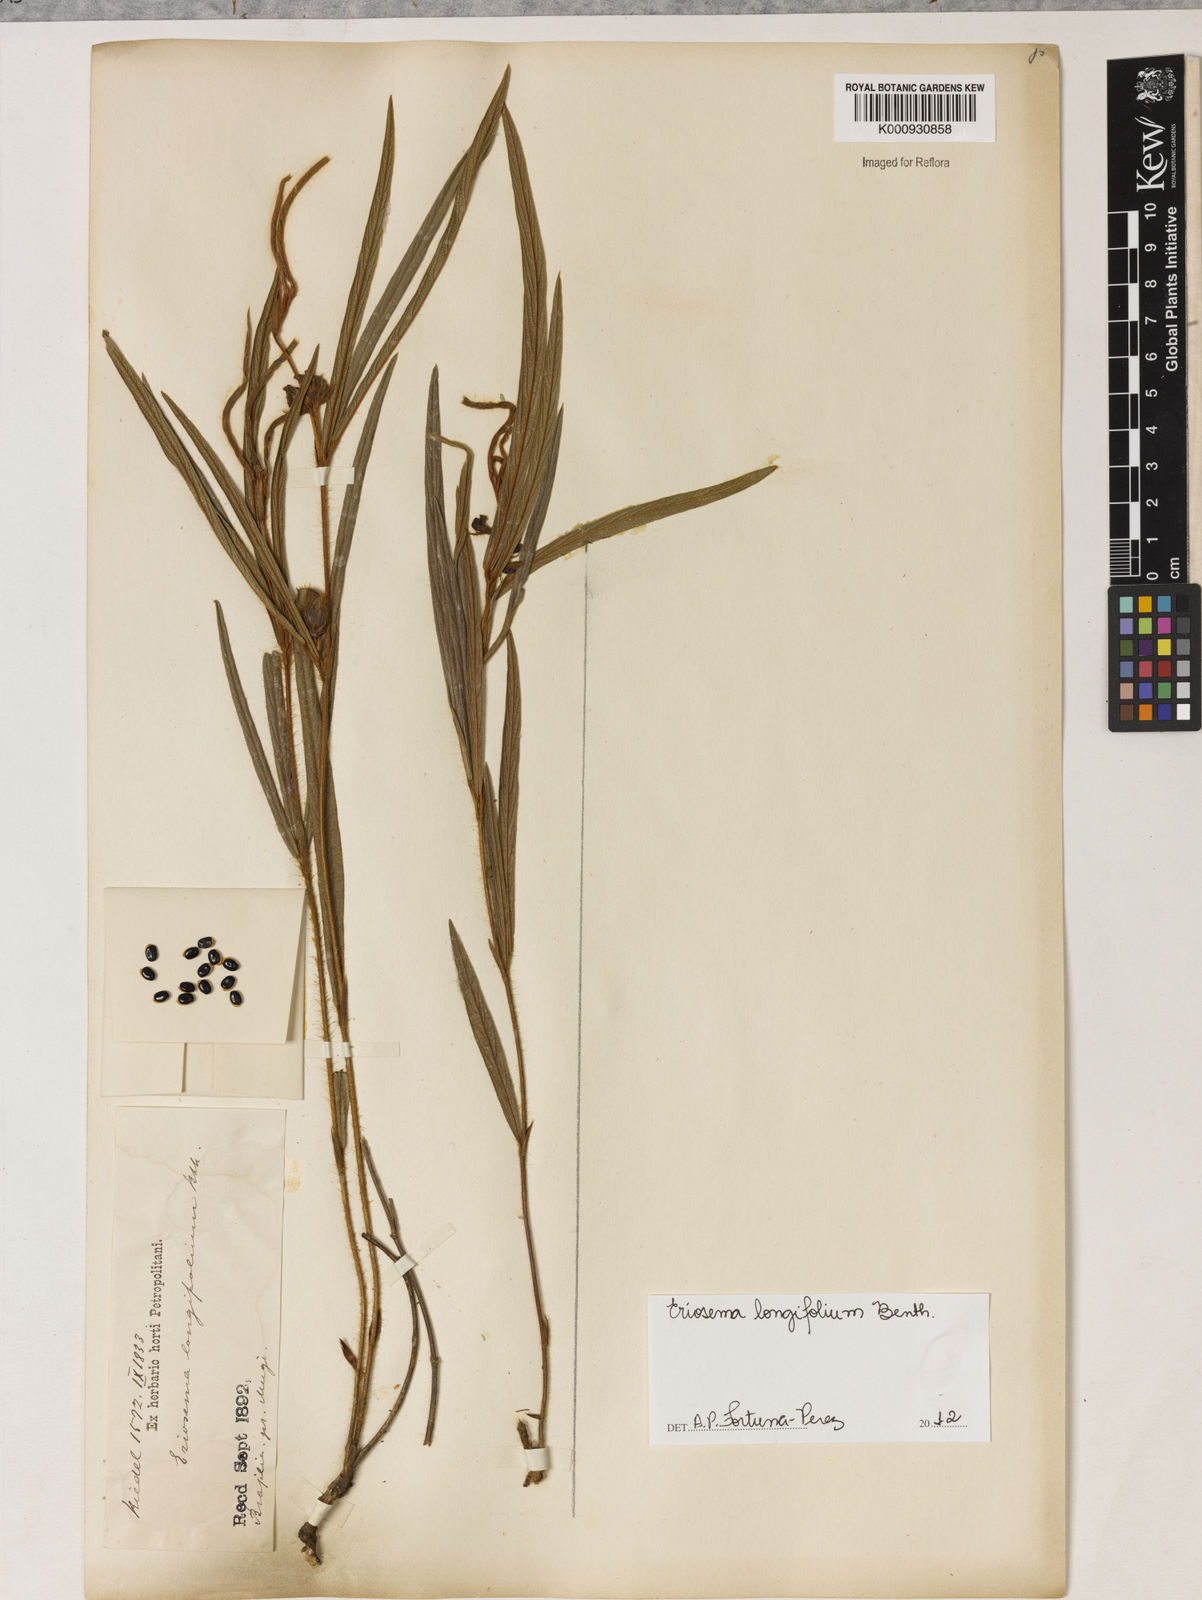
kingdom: Plantae
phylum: Tracheophyta
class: Magnoliopsida
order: Fabales
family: Fabaceae
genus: Eriosema
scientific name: Eriosema longifolium
